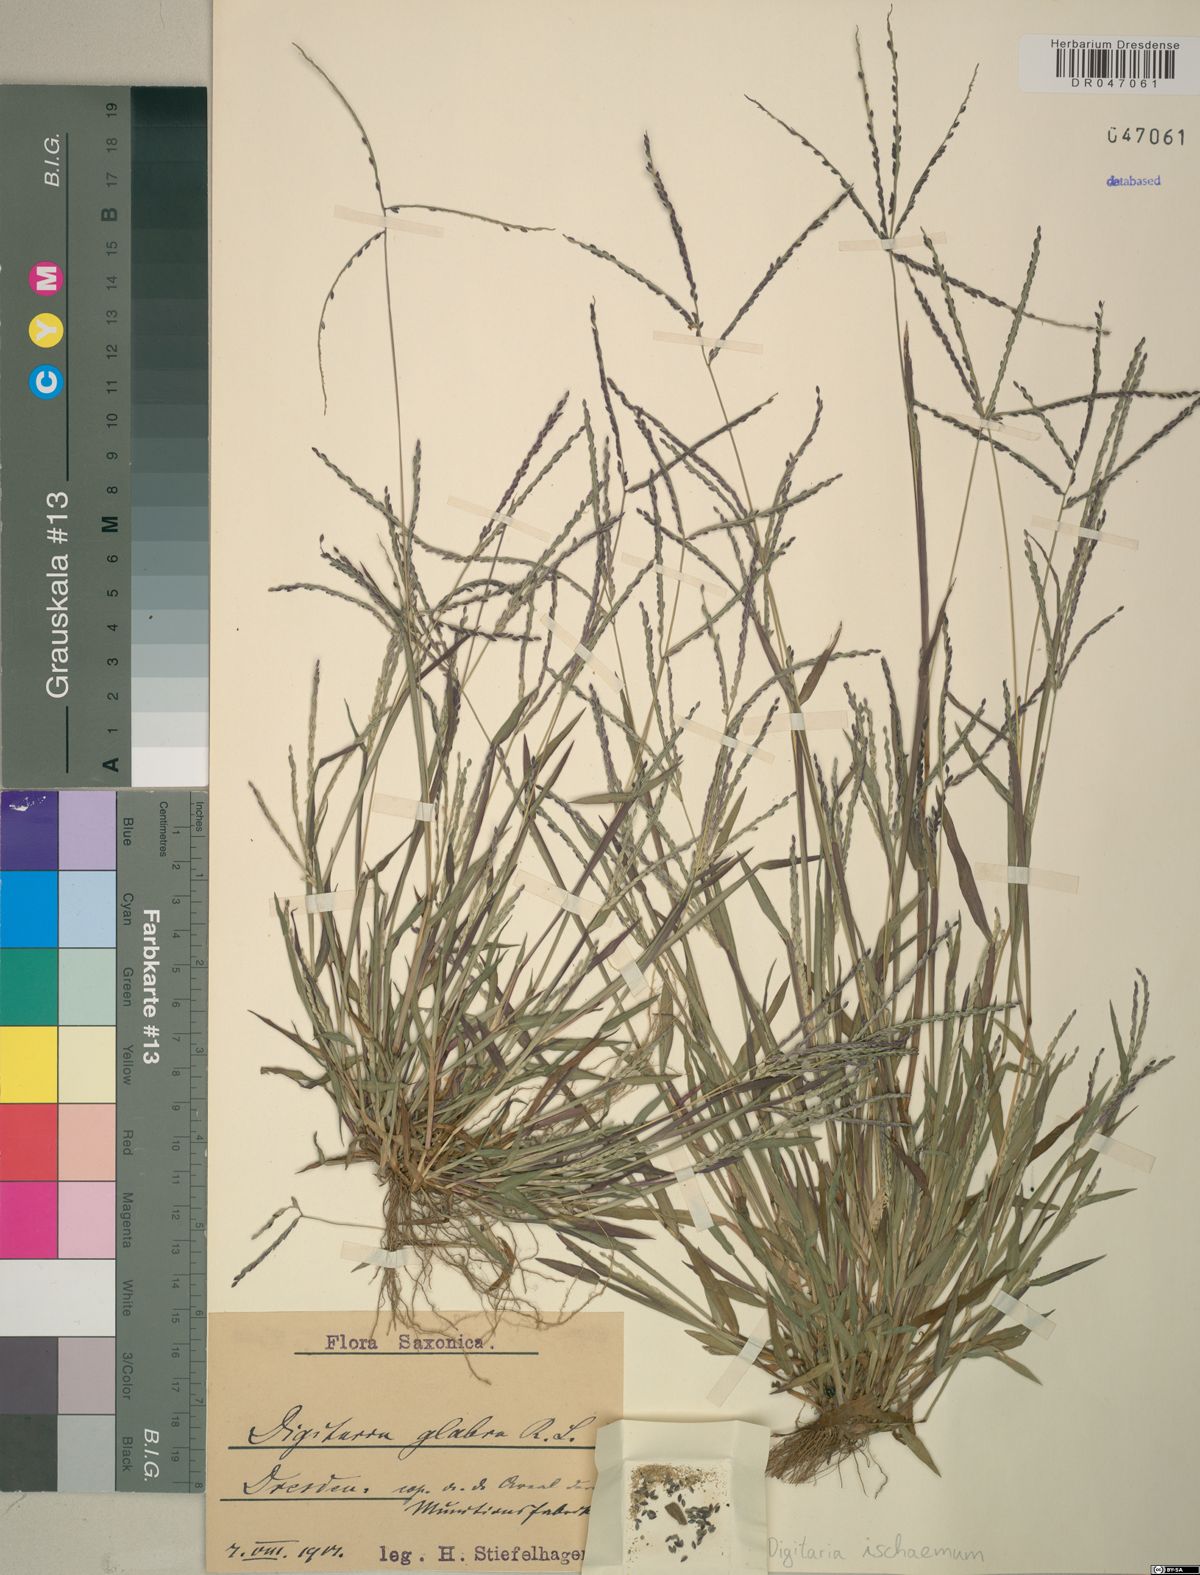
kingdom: Plantae
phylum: Tracheophyta
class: Liliopsida
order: Poales
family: Poaceae
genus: Digitaria
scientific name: Digitaria ischaemum
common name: Smooth crabgrass
